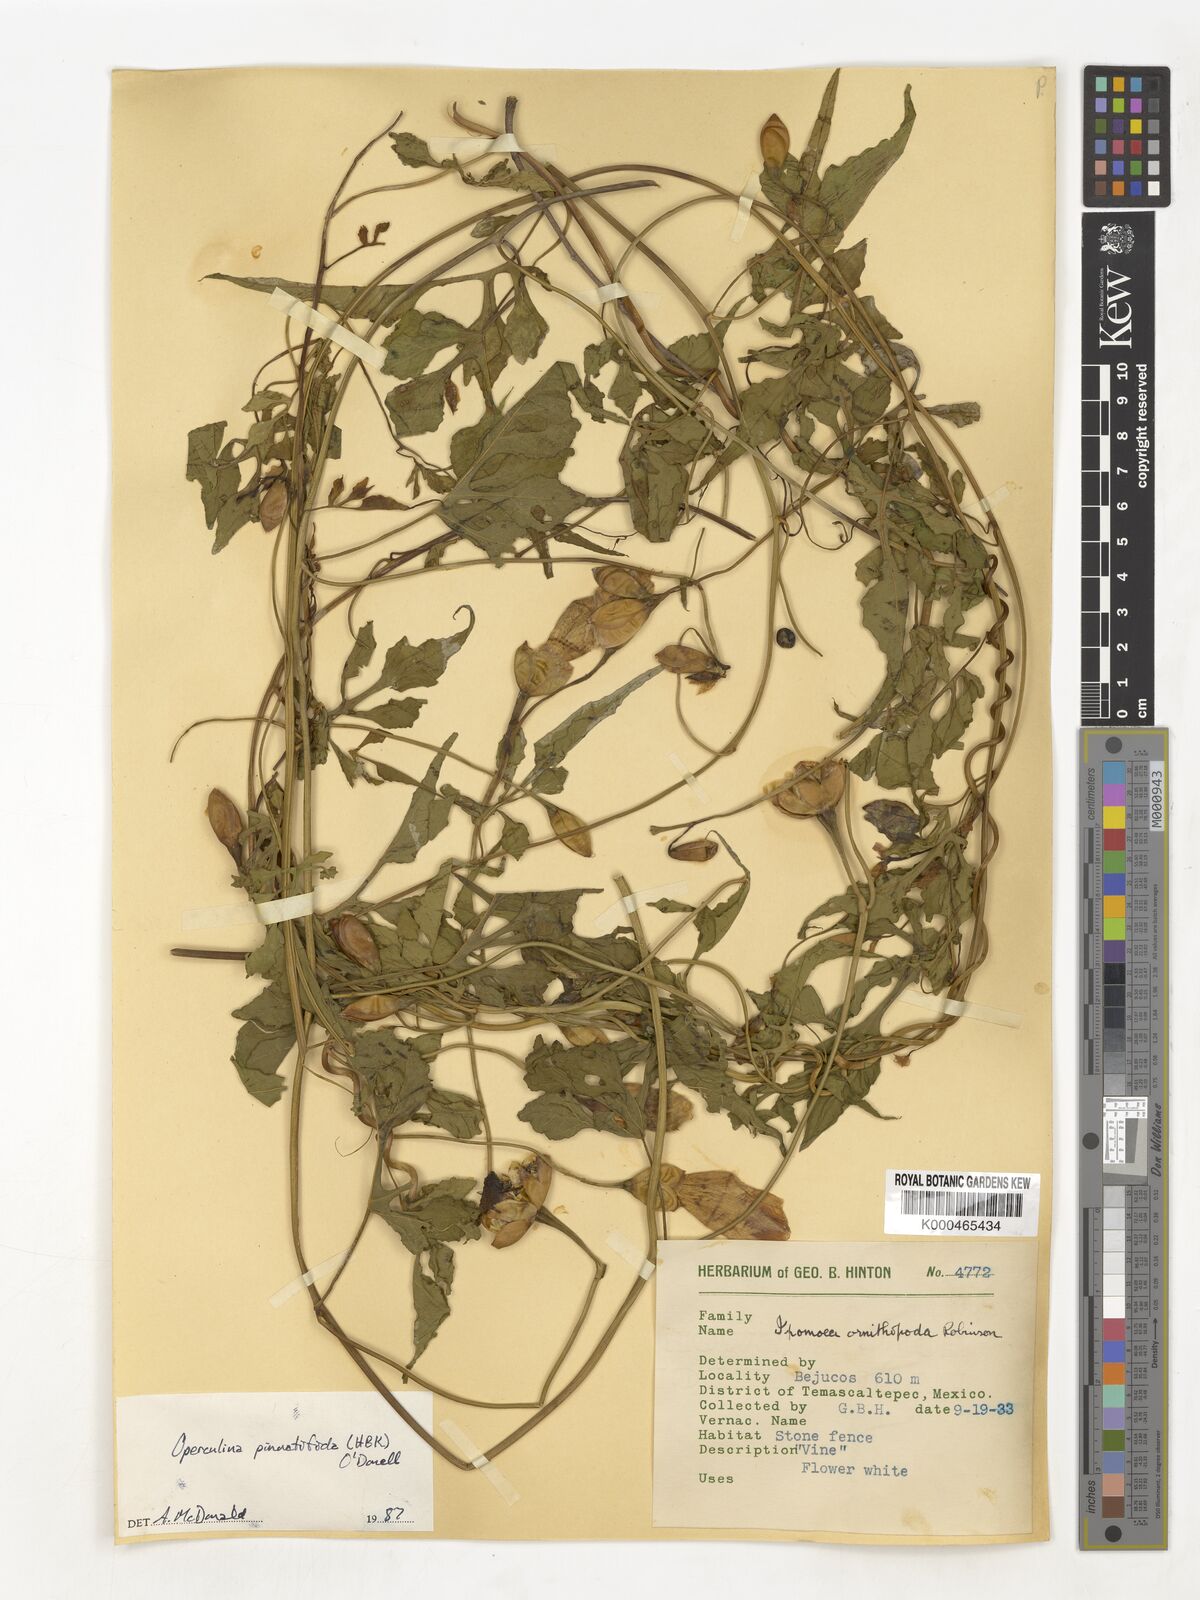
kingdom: Plantae
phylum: Tracheophyta
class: Magnoliopsida
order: Solanales
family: Convolvulaceae
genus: Operculina
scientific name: Operculina
